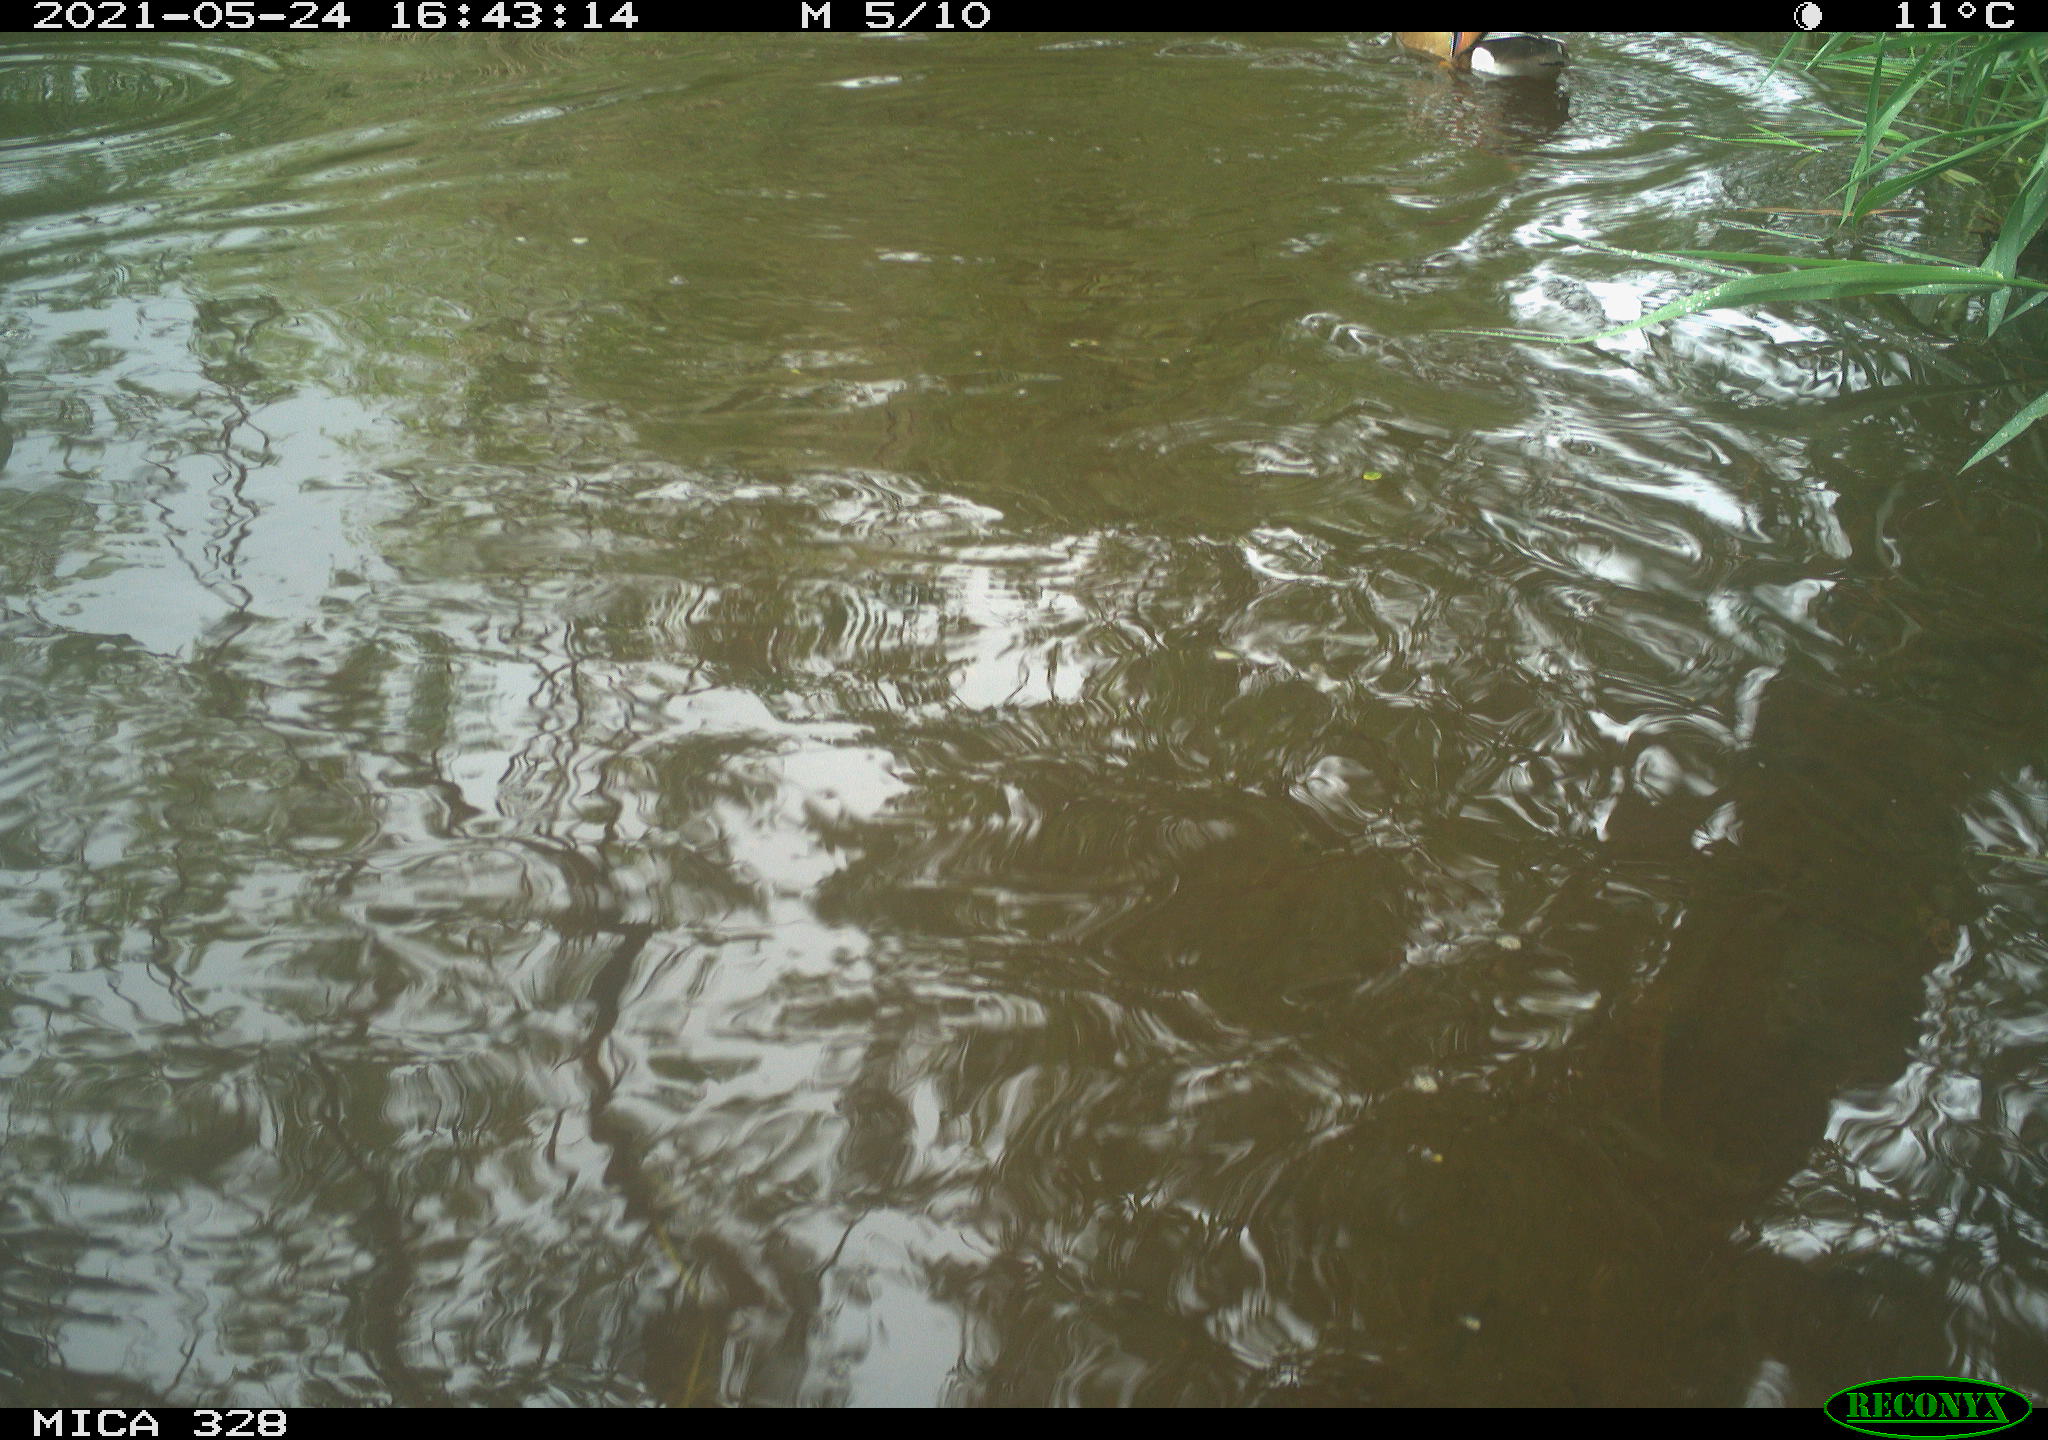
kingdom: Animalia
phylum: Chordata
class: Aves
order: Anseriformes
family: Anatidae
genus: Aix
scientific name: Aix galericulata
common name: Mandarin duck
